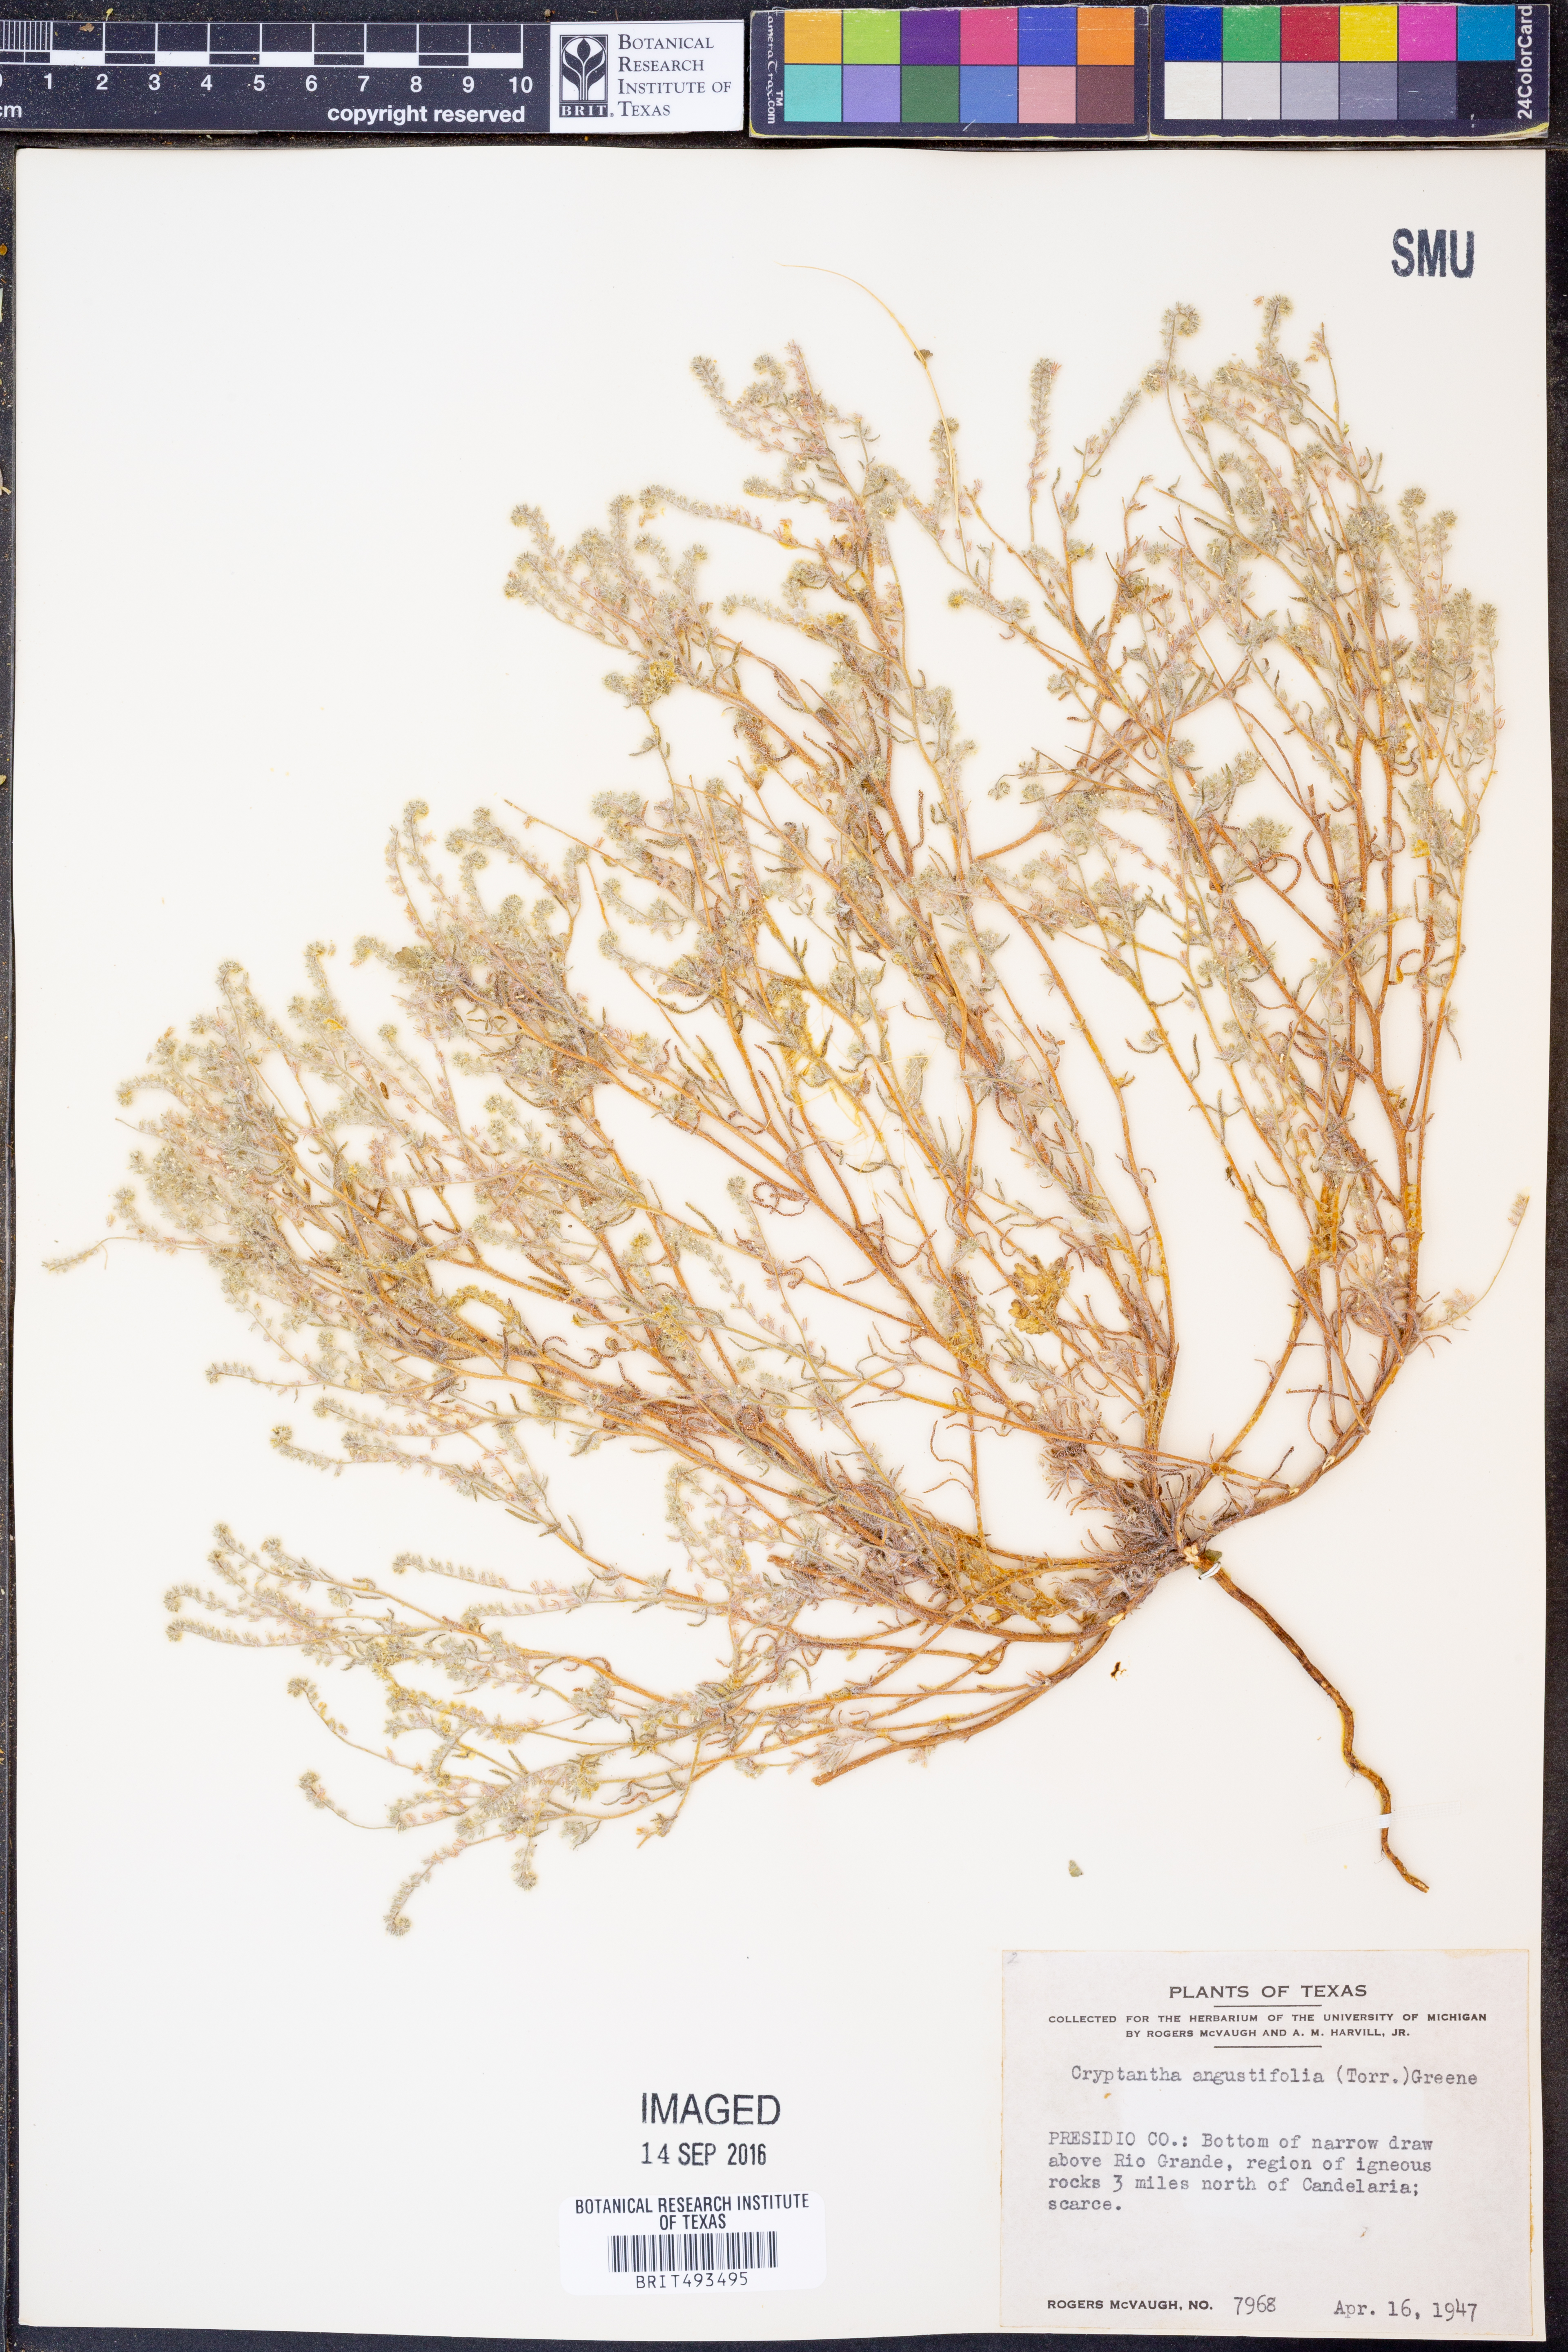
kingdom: Plantae
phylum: Tracheophyta
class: Magnoliopsida
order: Boraginales
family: Boraginaceae
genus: Johnstonella
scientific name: Johnstonella angustifolia
